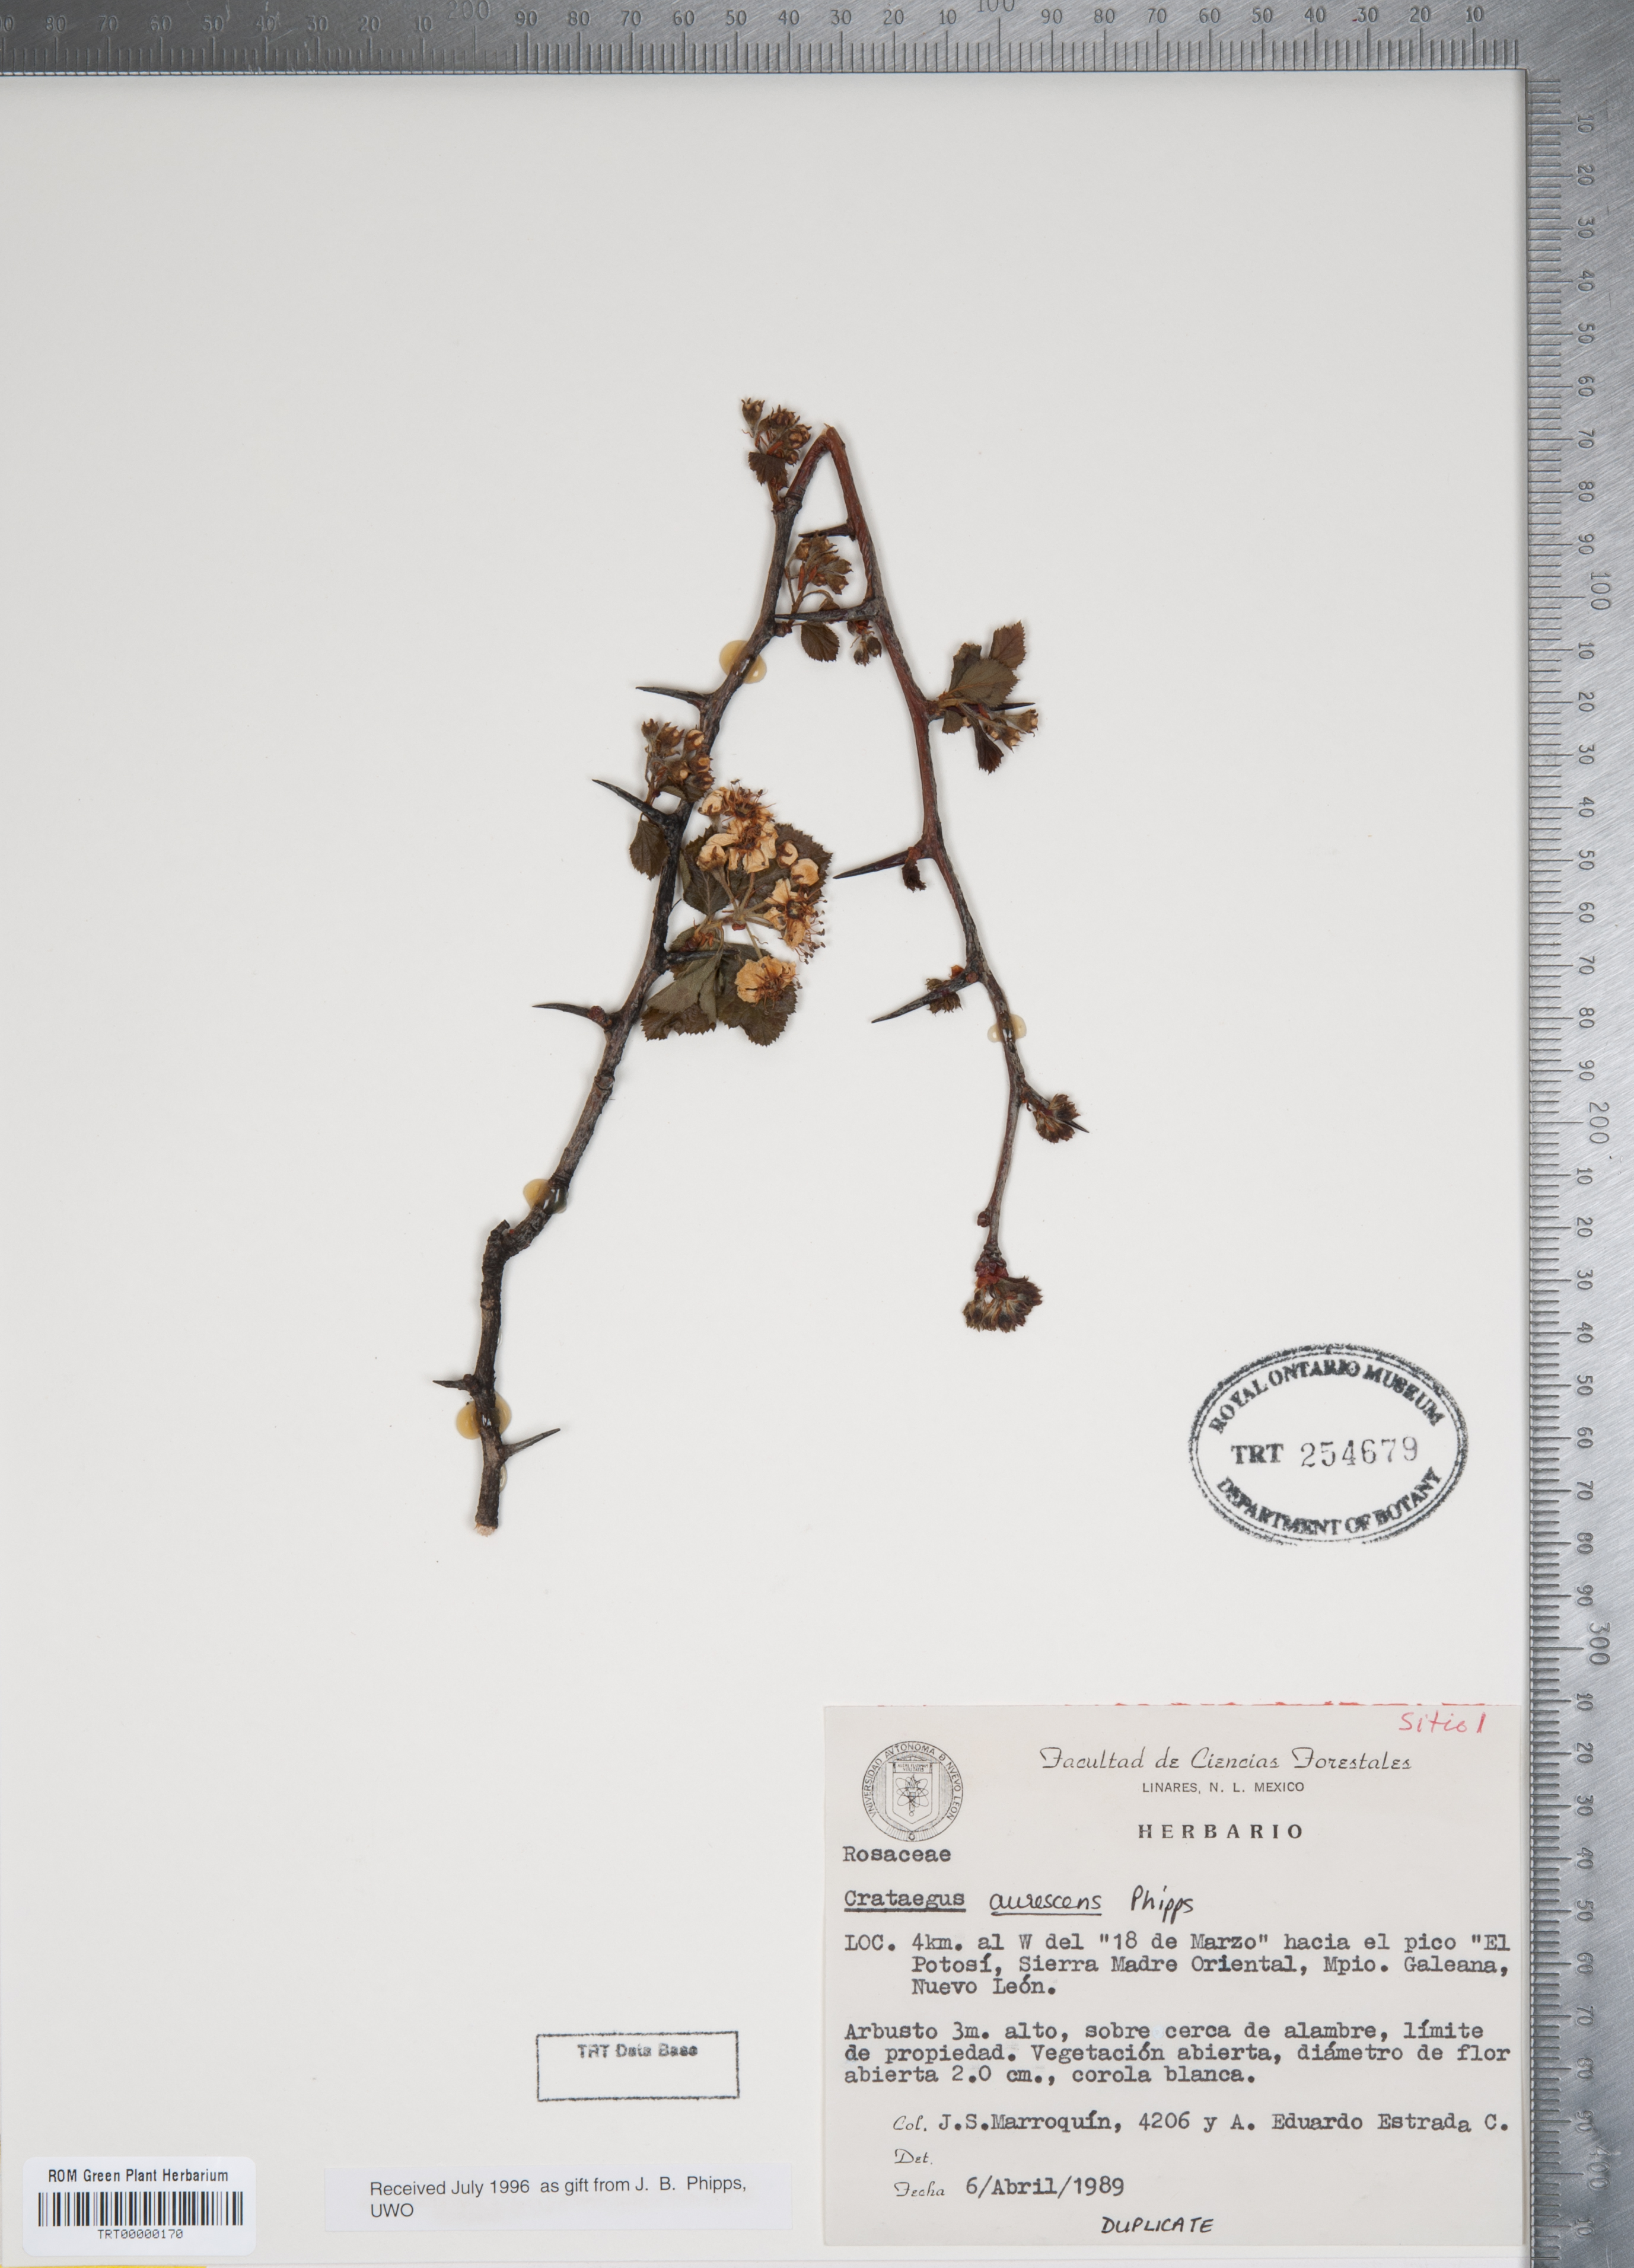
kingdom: Plantae
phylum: Tracheophyta
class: Magnoliopsida
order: Rosales
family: Rosaceae
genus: Crataegus
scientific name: Crataegus aurescens
